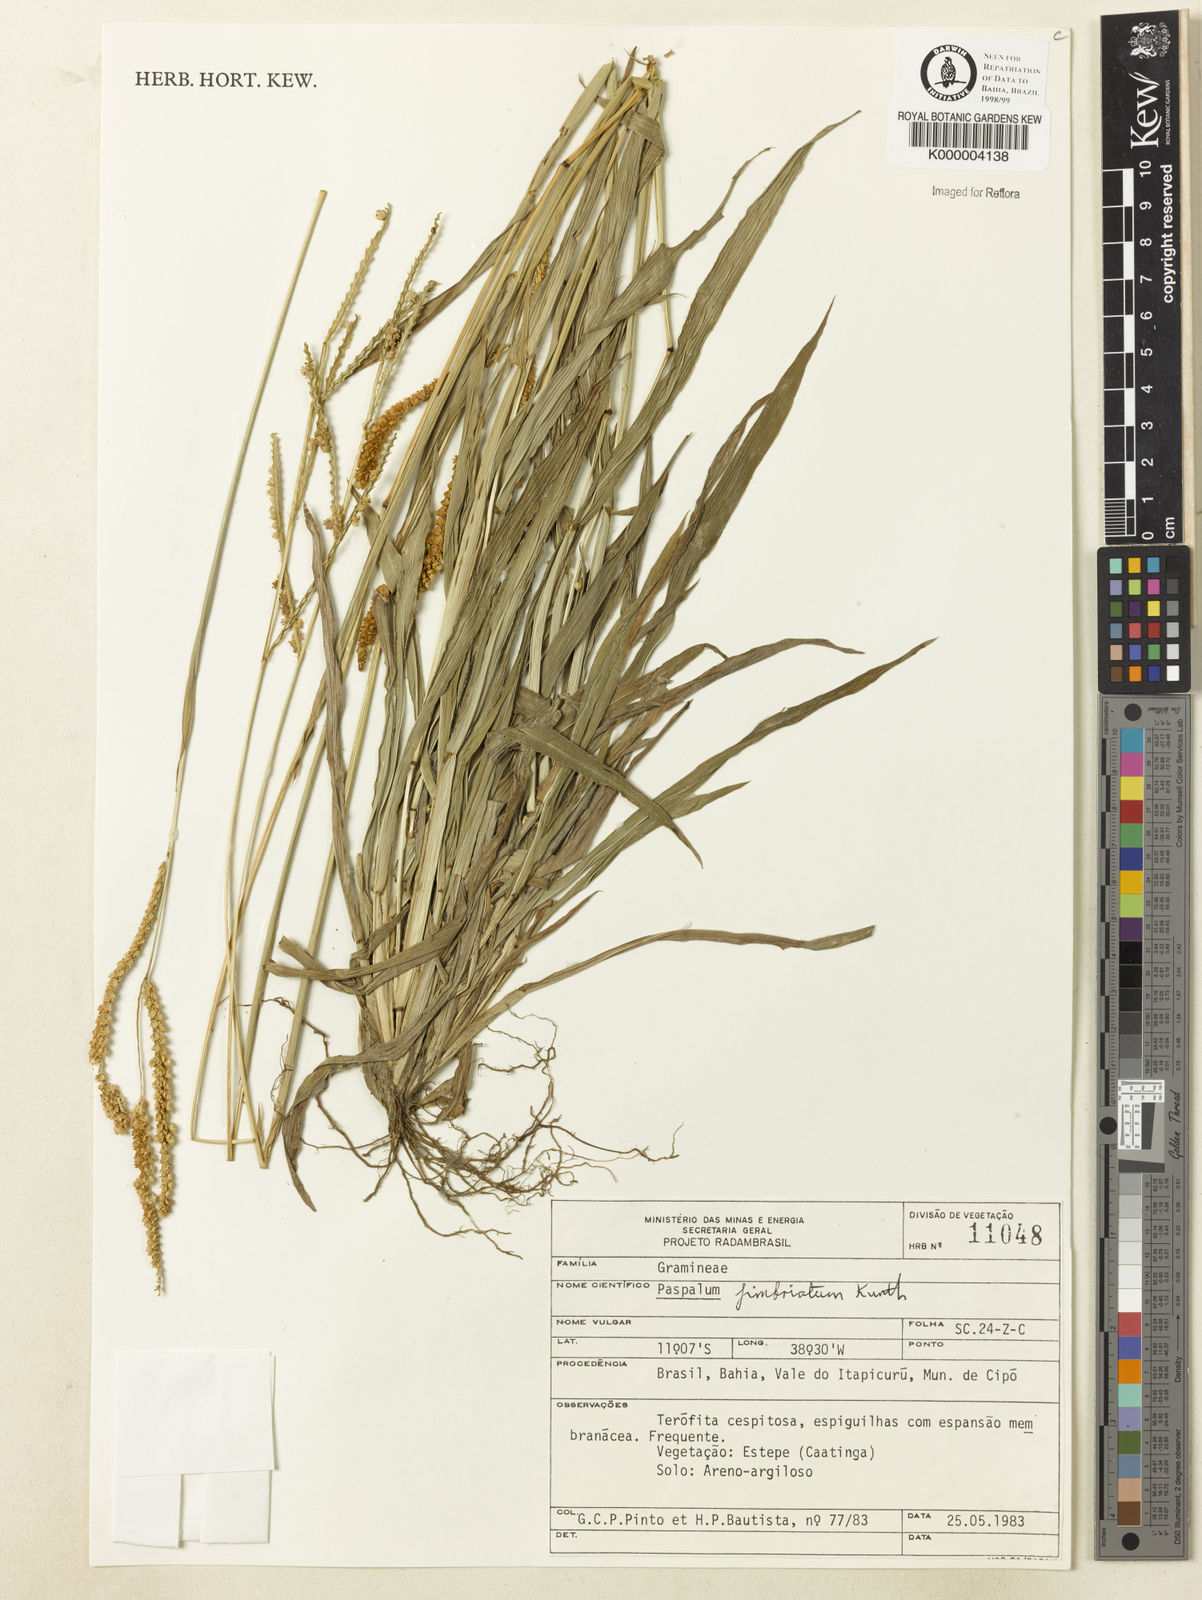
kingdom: Plantae
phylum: Tracheophyta
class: Liliopsida
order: Poales
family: Poaceae
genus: Paspalum
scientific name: Paspalum fimbriatum
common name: Panama crowngrass
